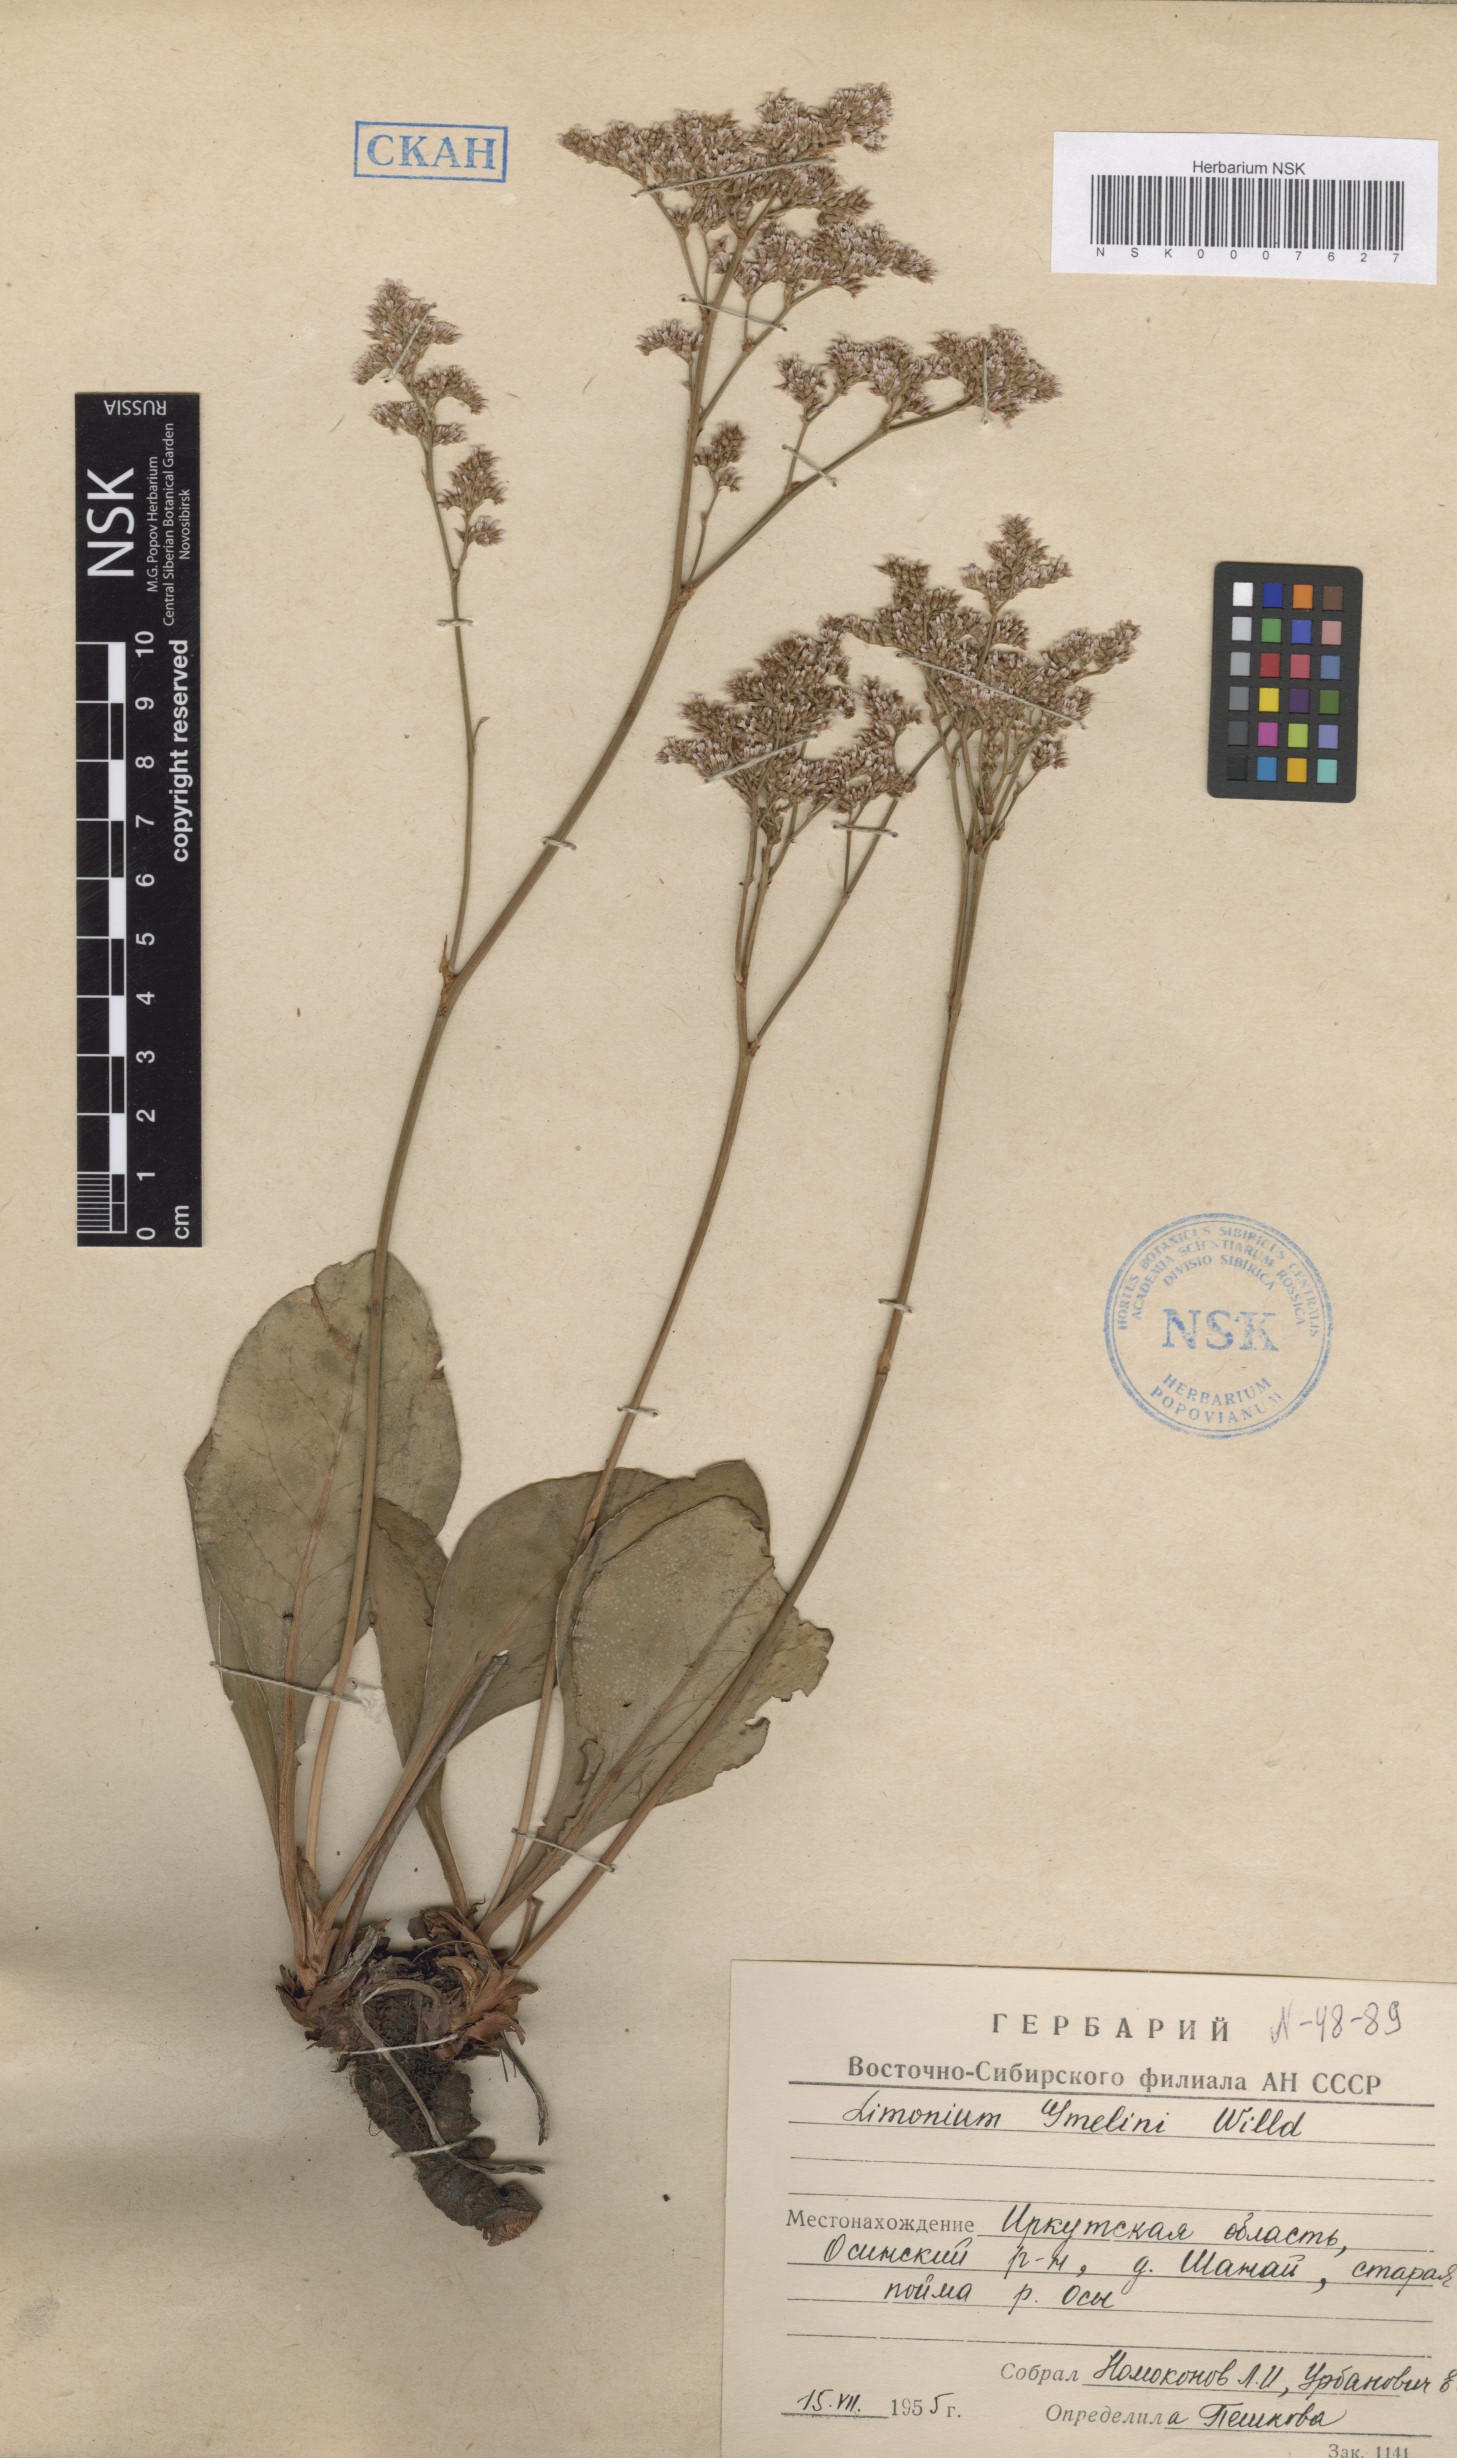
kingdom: Plantae
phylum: Tracheophyta
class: Magnoliopsida
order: Caryophyllales
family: Plumbaginaceae
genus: Limonium
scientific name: Limonium gmelini
